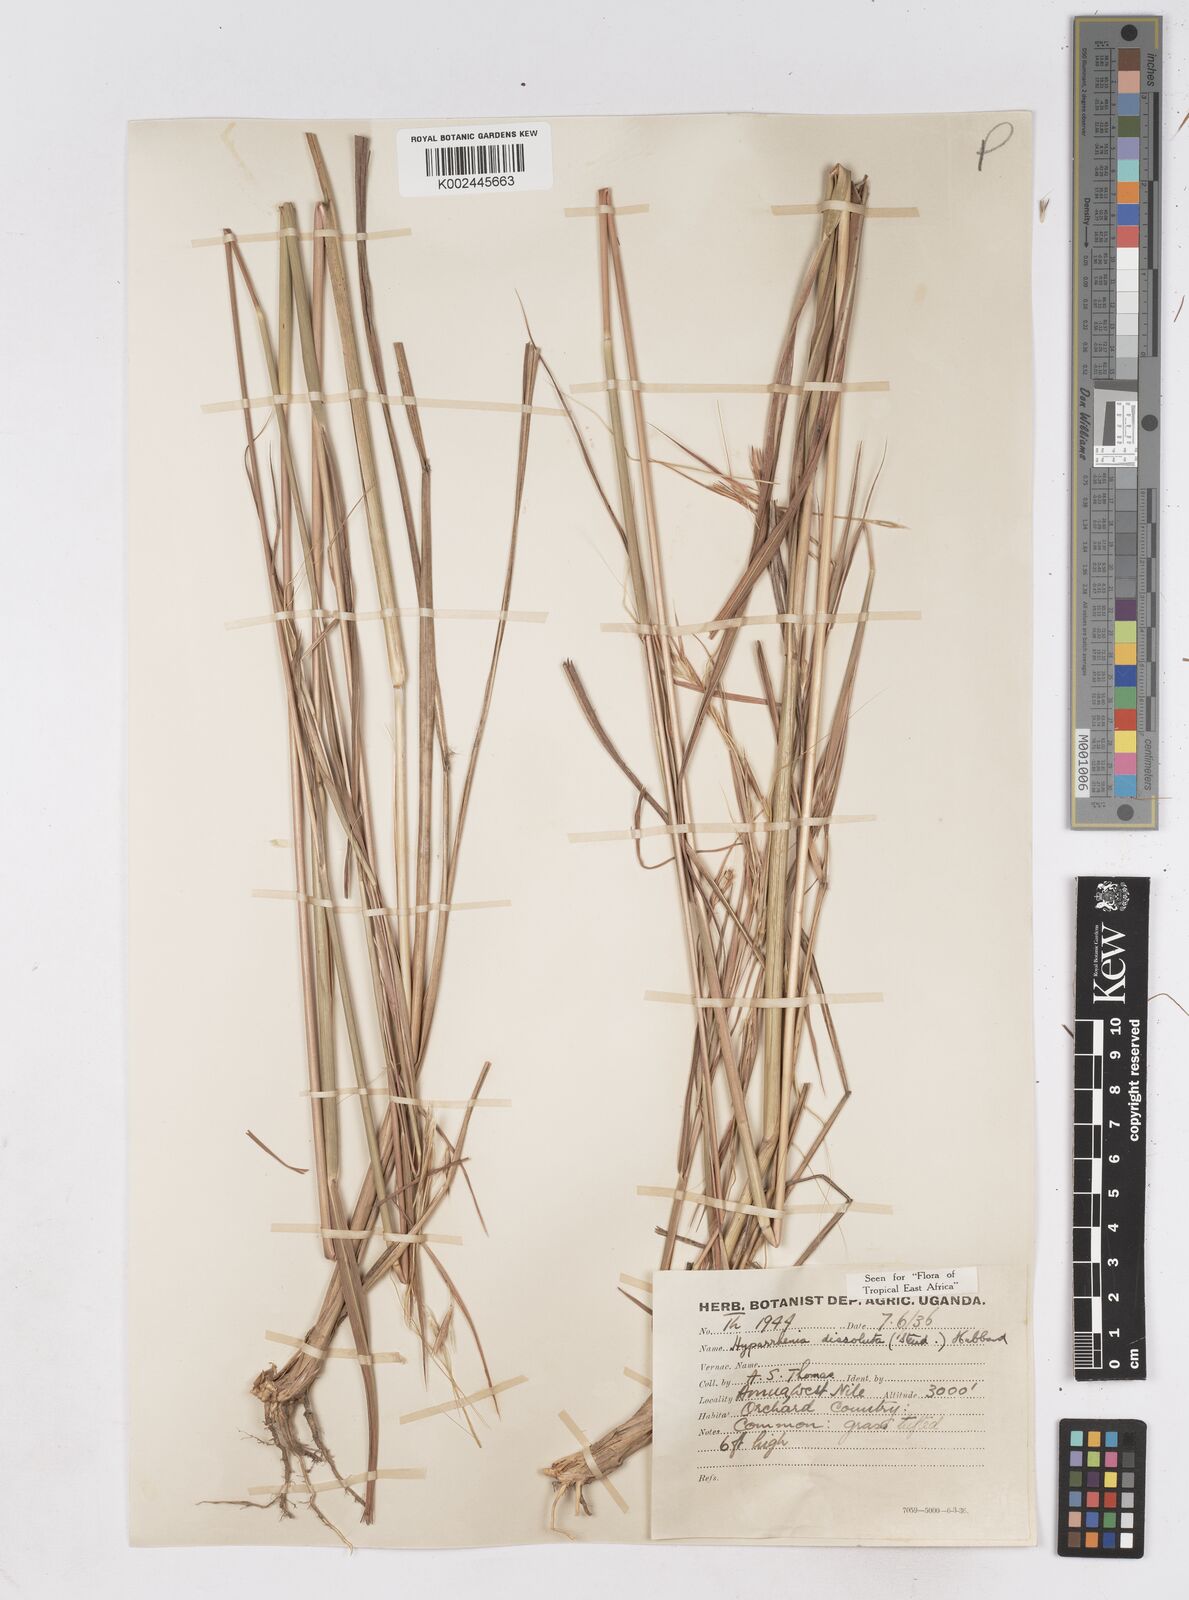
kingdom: Plantae
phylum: Tracheophyta
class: Liliopsida
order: Poales
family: Poaceae
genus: Hyperthelia
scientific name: Hyperthelia dissoluta
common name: Yellow thatching grass
